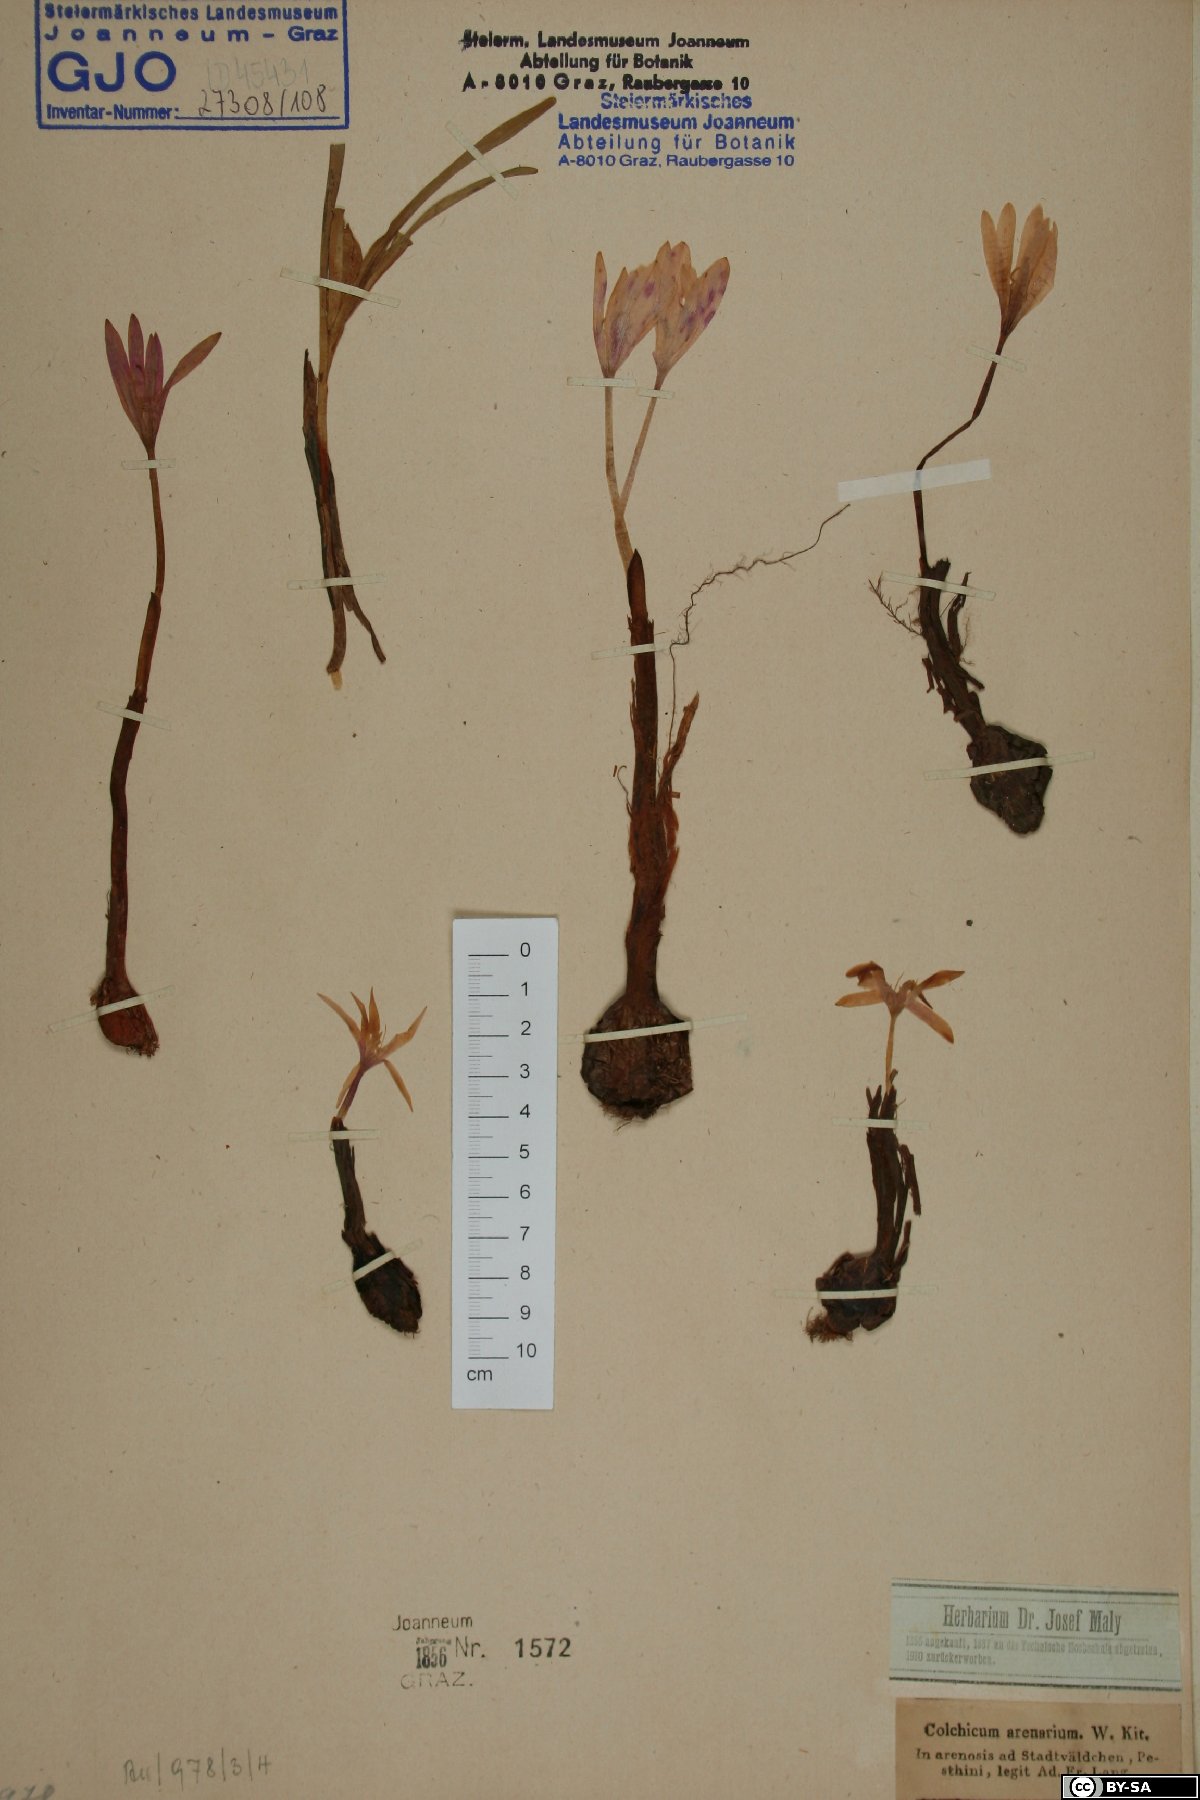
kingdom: Plantae
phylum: Tracheophyta
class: Liliopsida
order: Liliales
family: Colchicaceae
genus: Colchicum
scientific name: Colchicum arenarium
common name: Sand saffron
